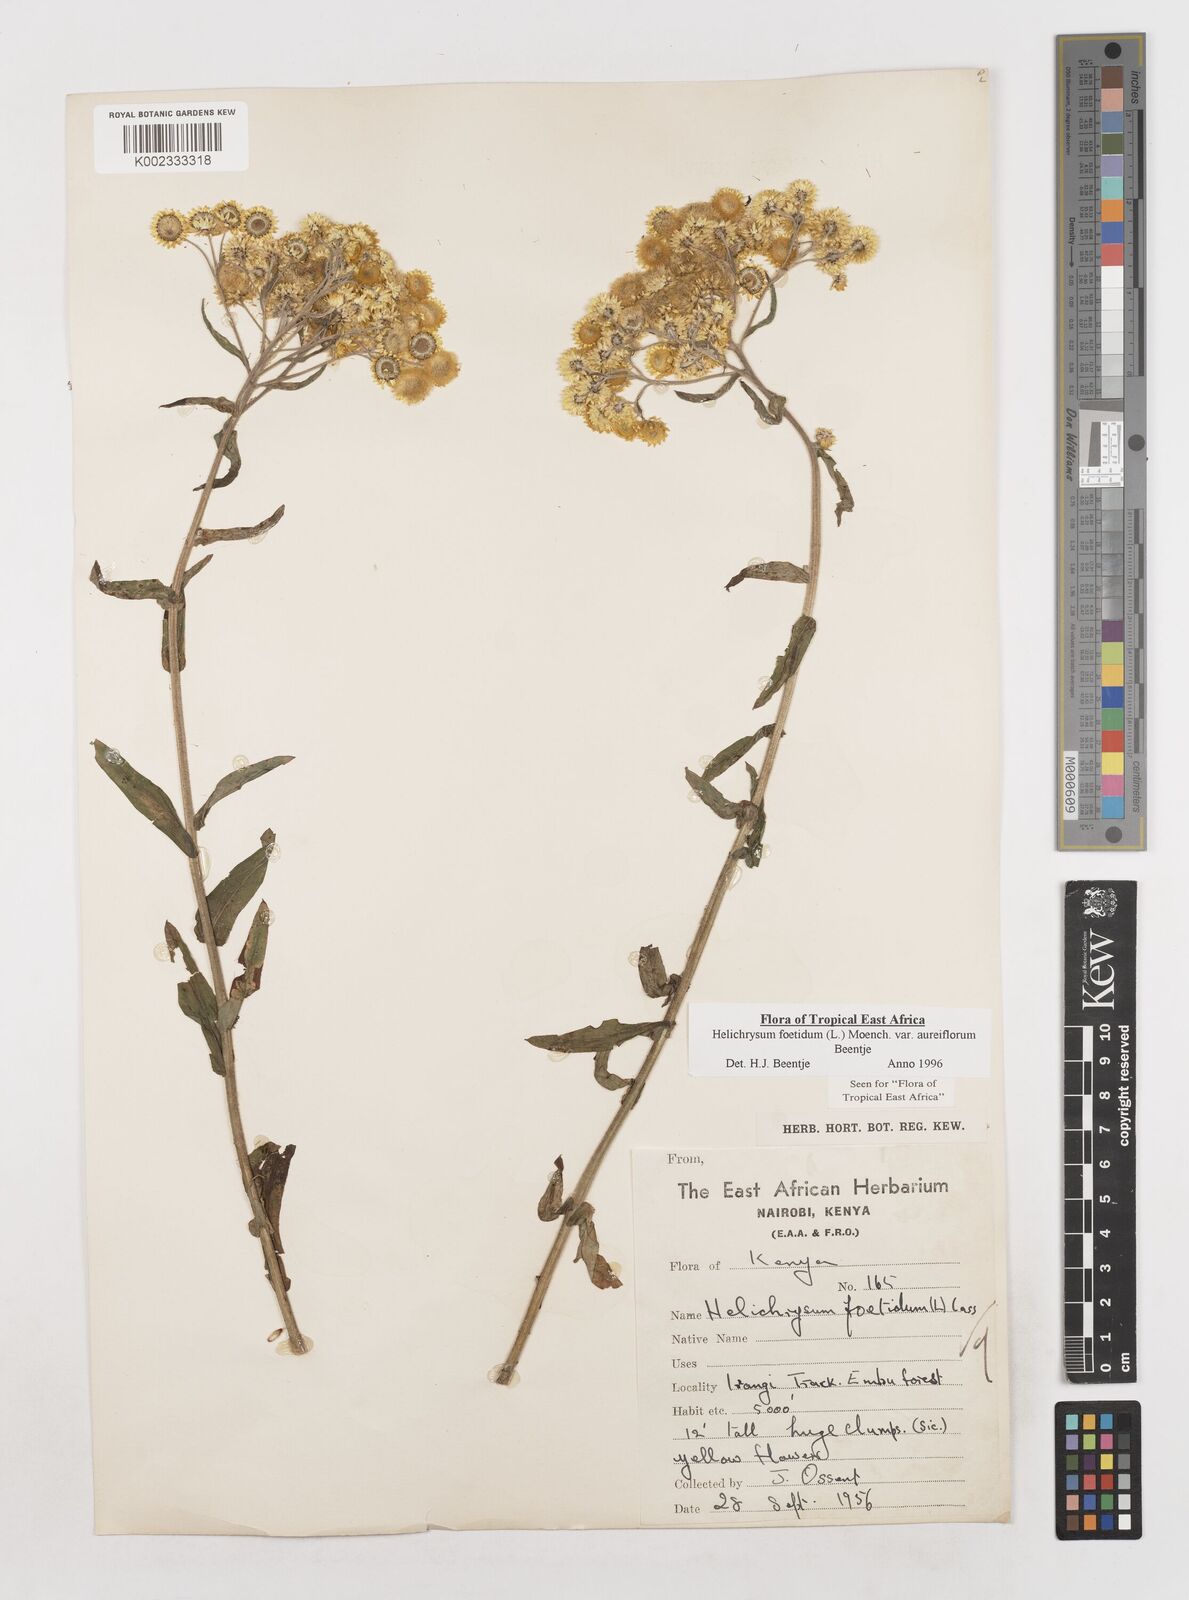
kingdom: Plantae
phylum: Tracheophyta
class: Magnoliopsida
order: Asterales
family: Asteraceae
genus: Helichrysum
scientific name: Helichrysum foetidum
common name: Stinking everlasting
